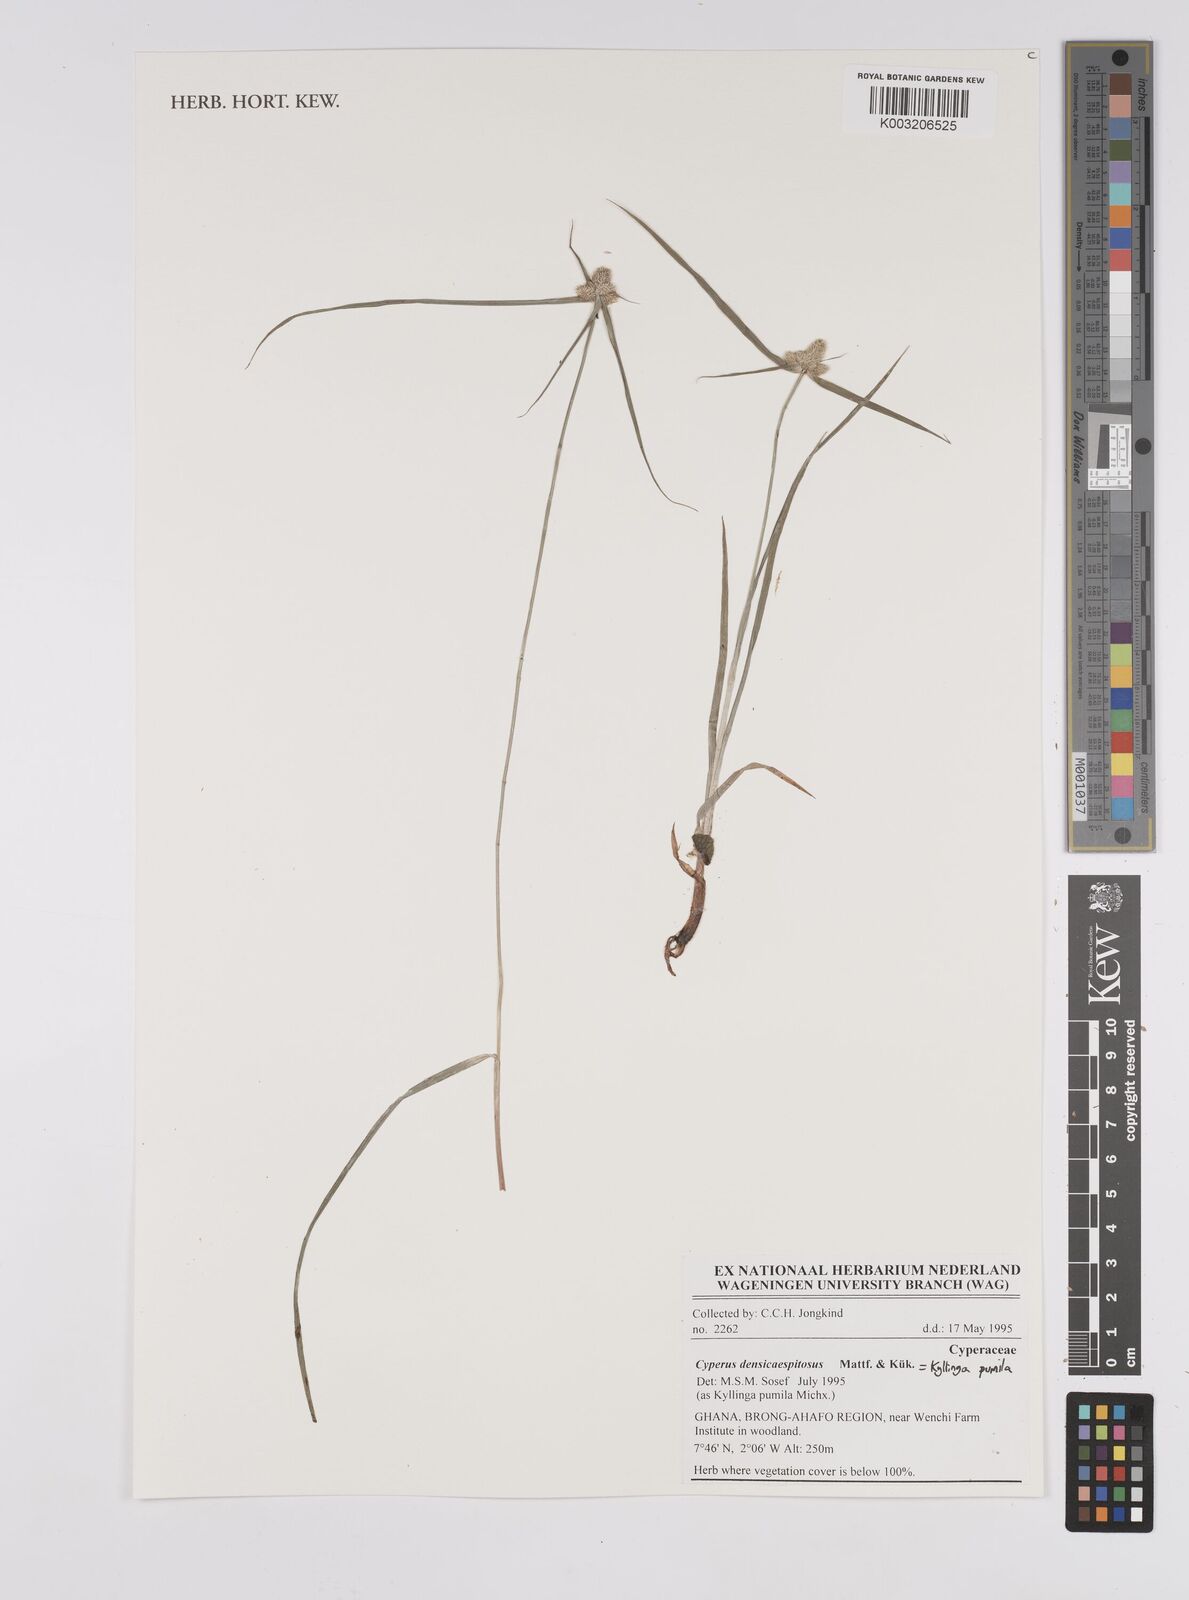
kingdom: Plantae
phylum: Tracheophyta
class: Liliopsida
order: Poales
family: Cyperaceae
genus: Cyperus
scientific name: Cyperus
